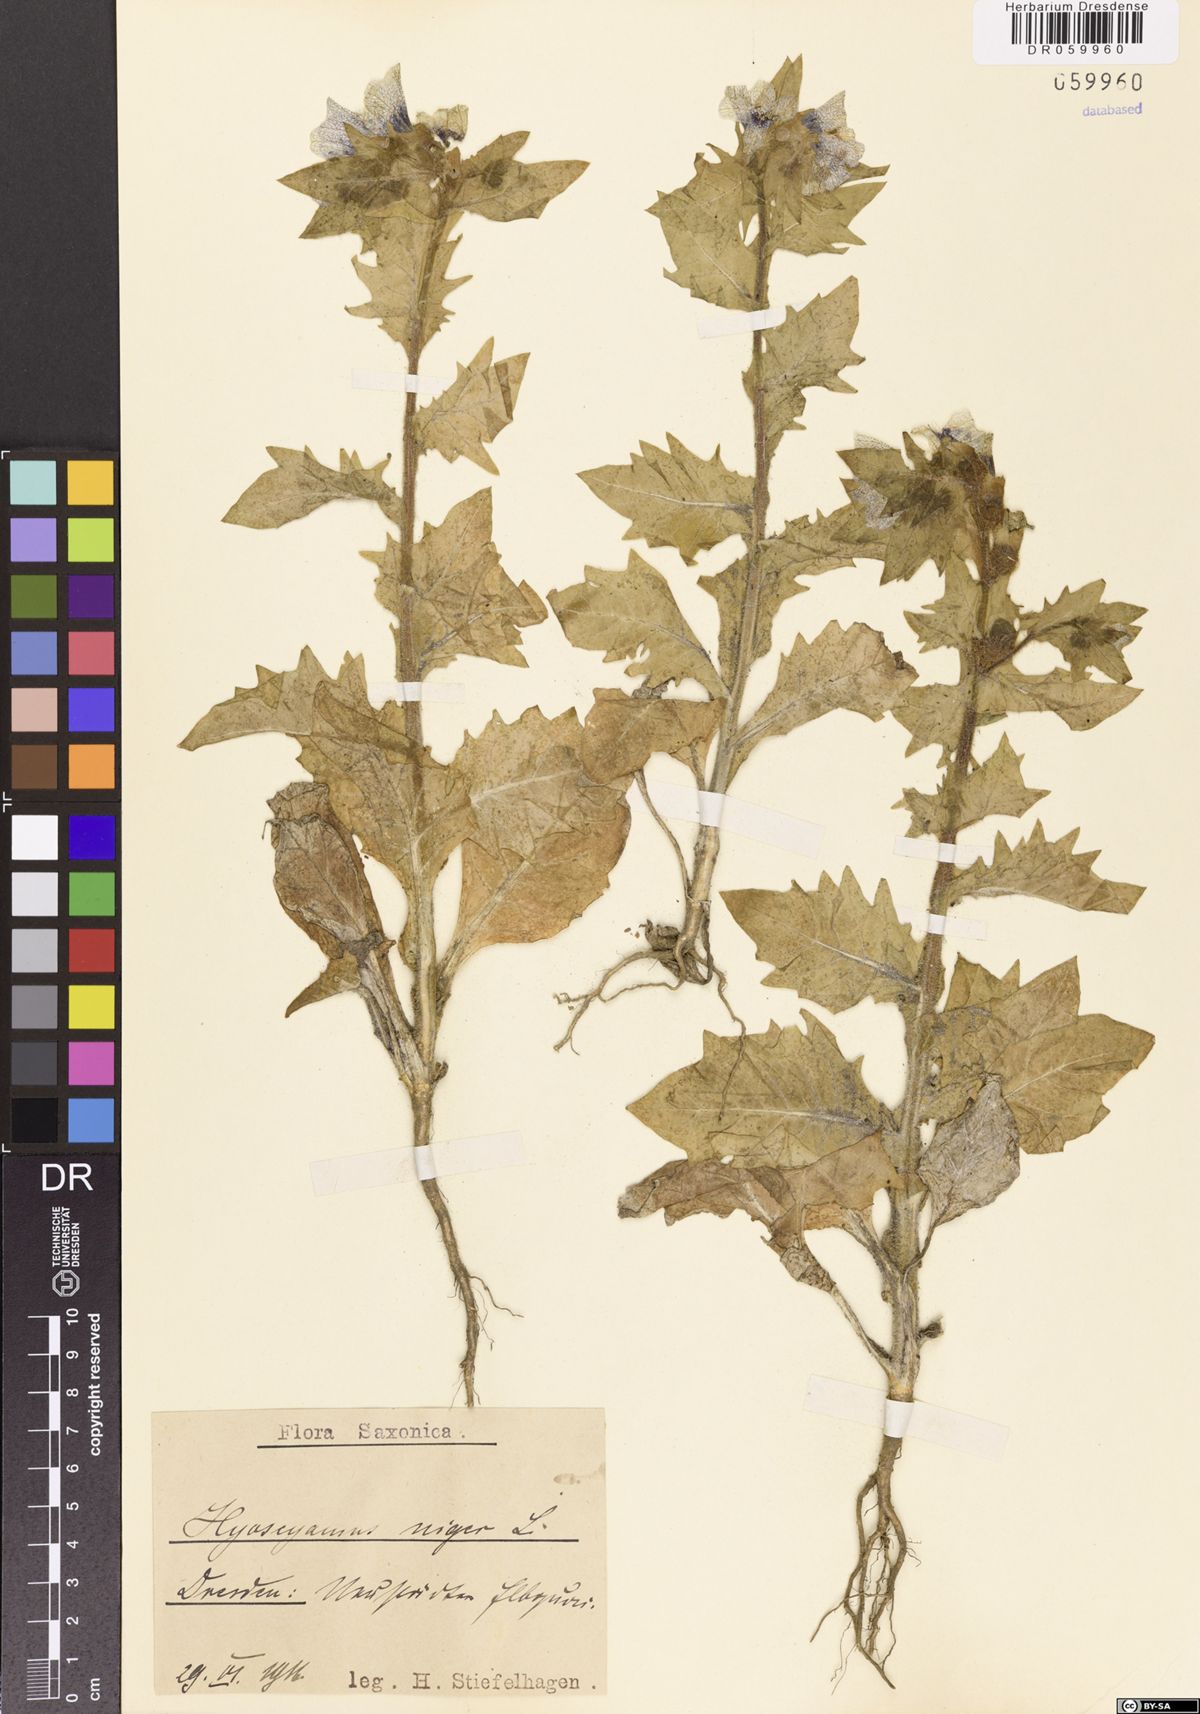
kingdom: Plantae
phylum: Tracheophyta
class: Magnoliopsida
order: Solanales
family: Solanaceae
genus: Hyoscyamus
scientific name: Hyoscyamus niger
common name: Henbane
